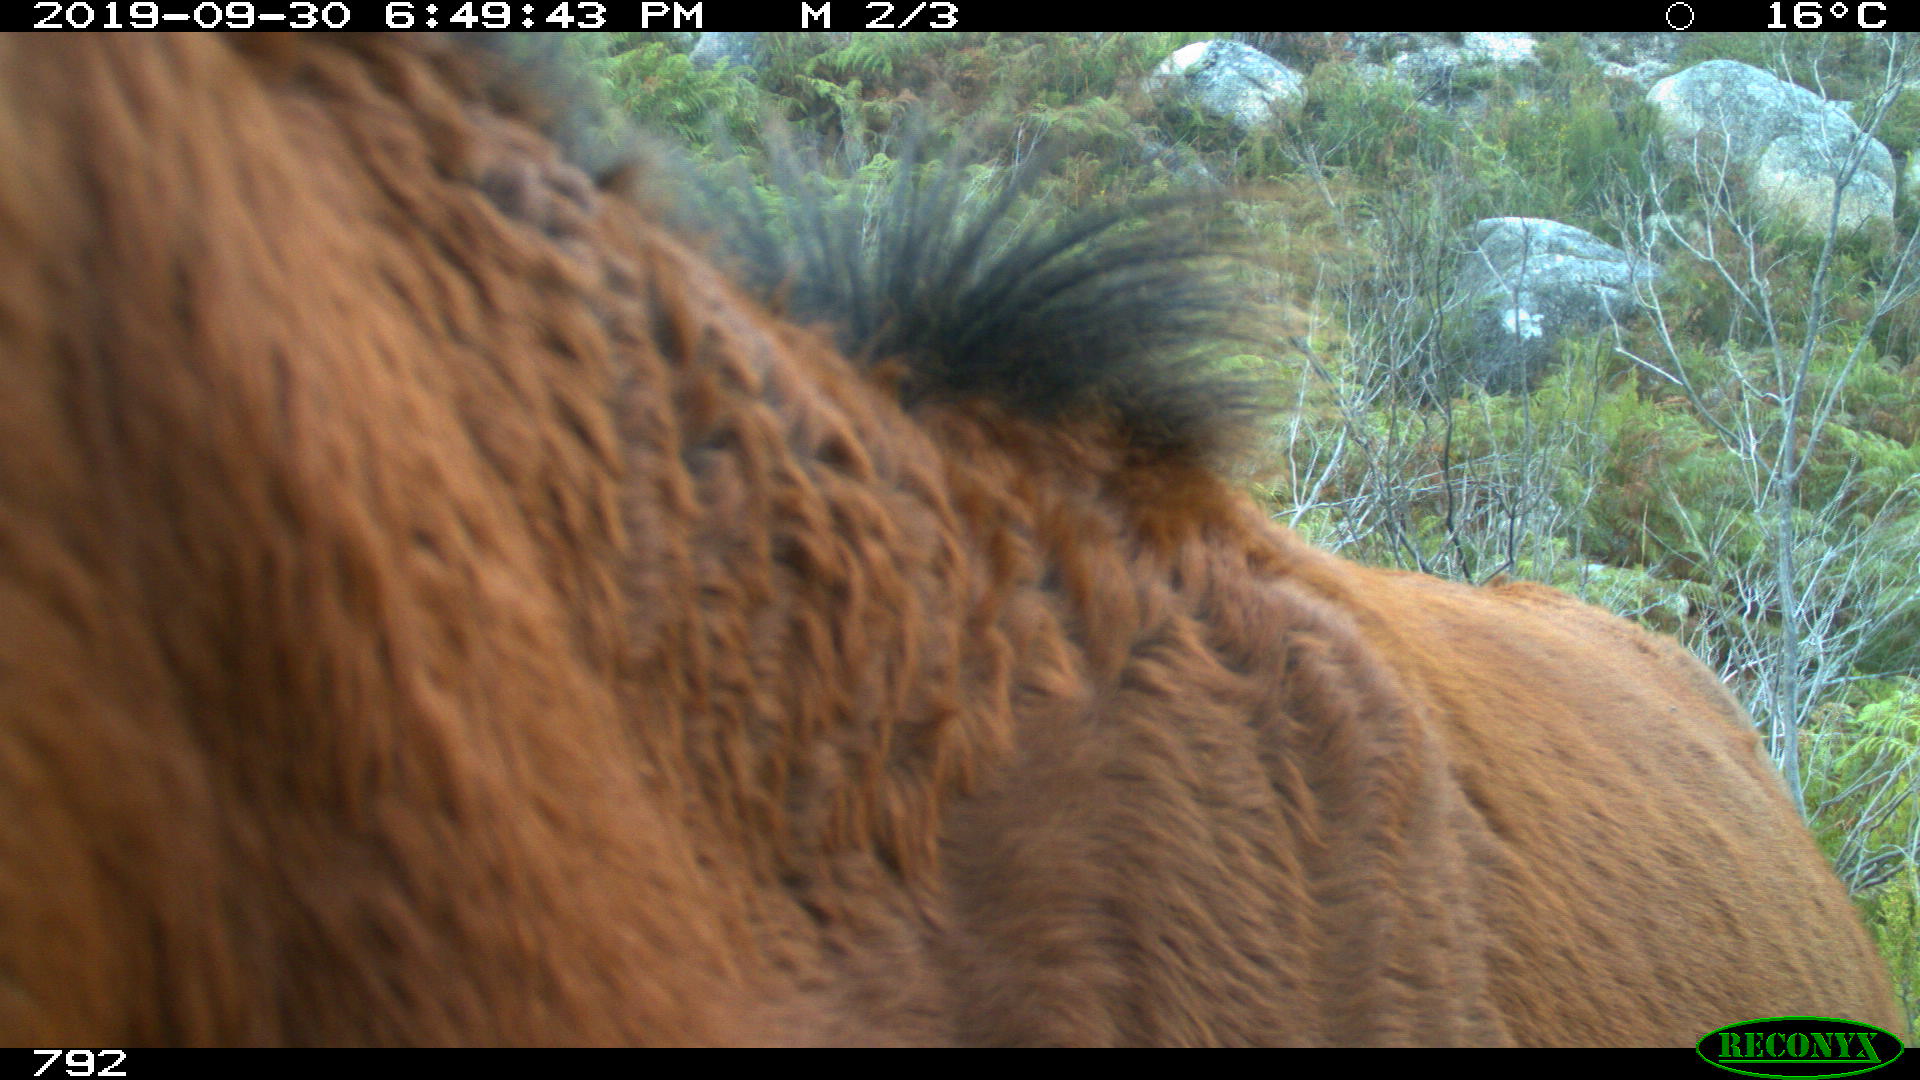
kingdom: Animalia
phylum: Chordata
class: Mammalia
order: Perissodactyla
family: Equidae
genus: Equus
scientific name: Equus caballus
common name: Horse
